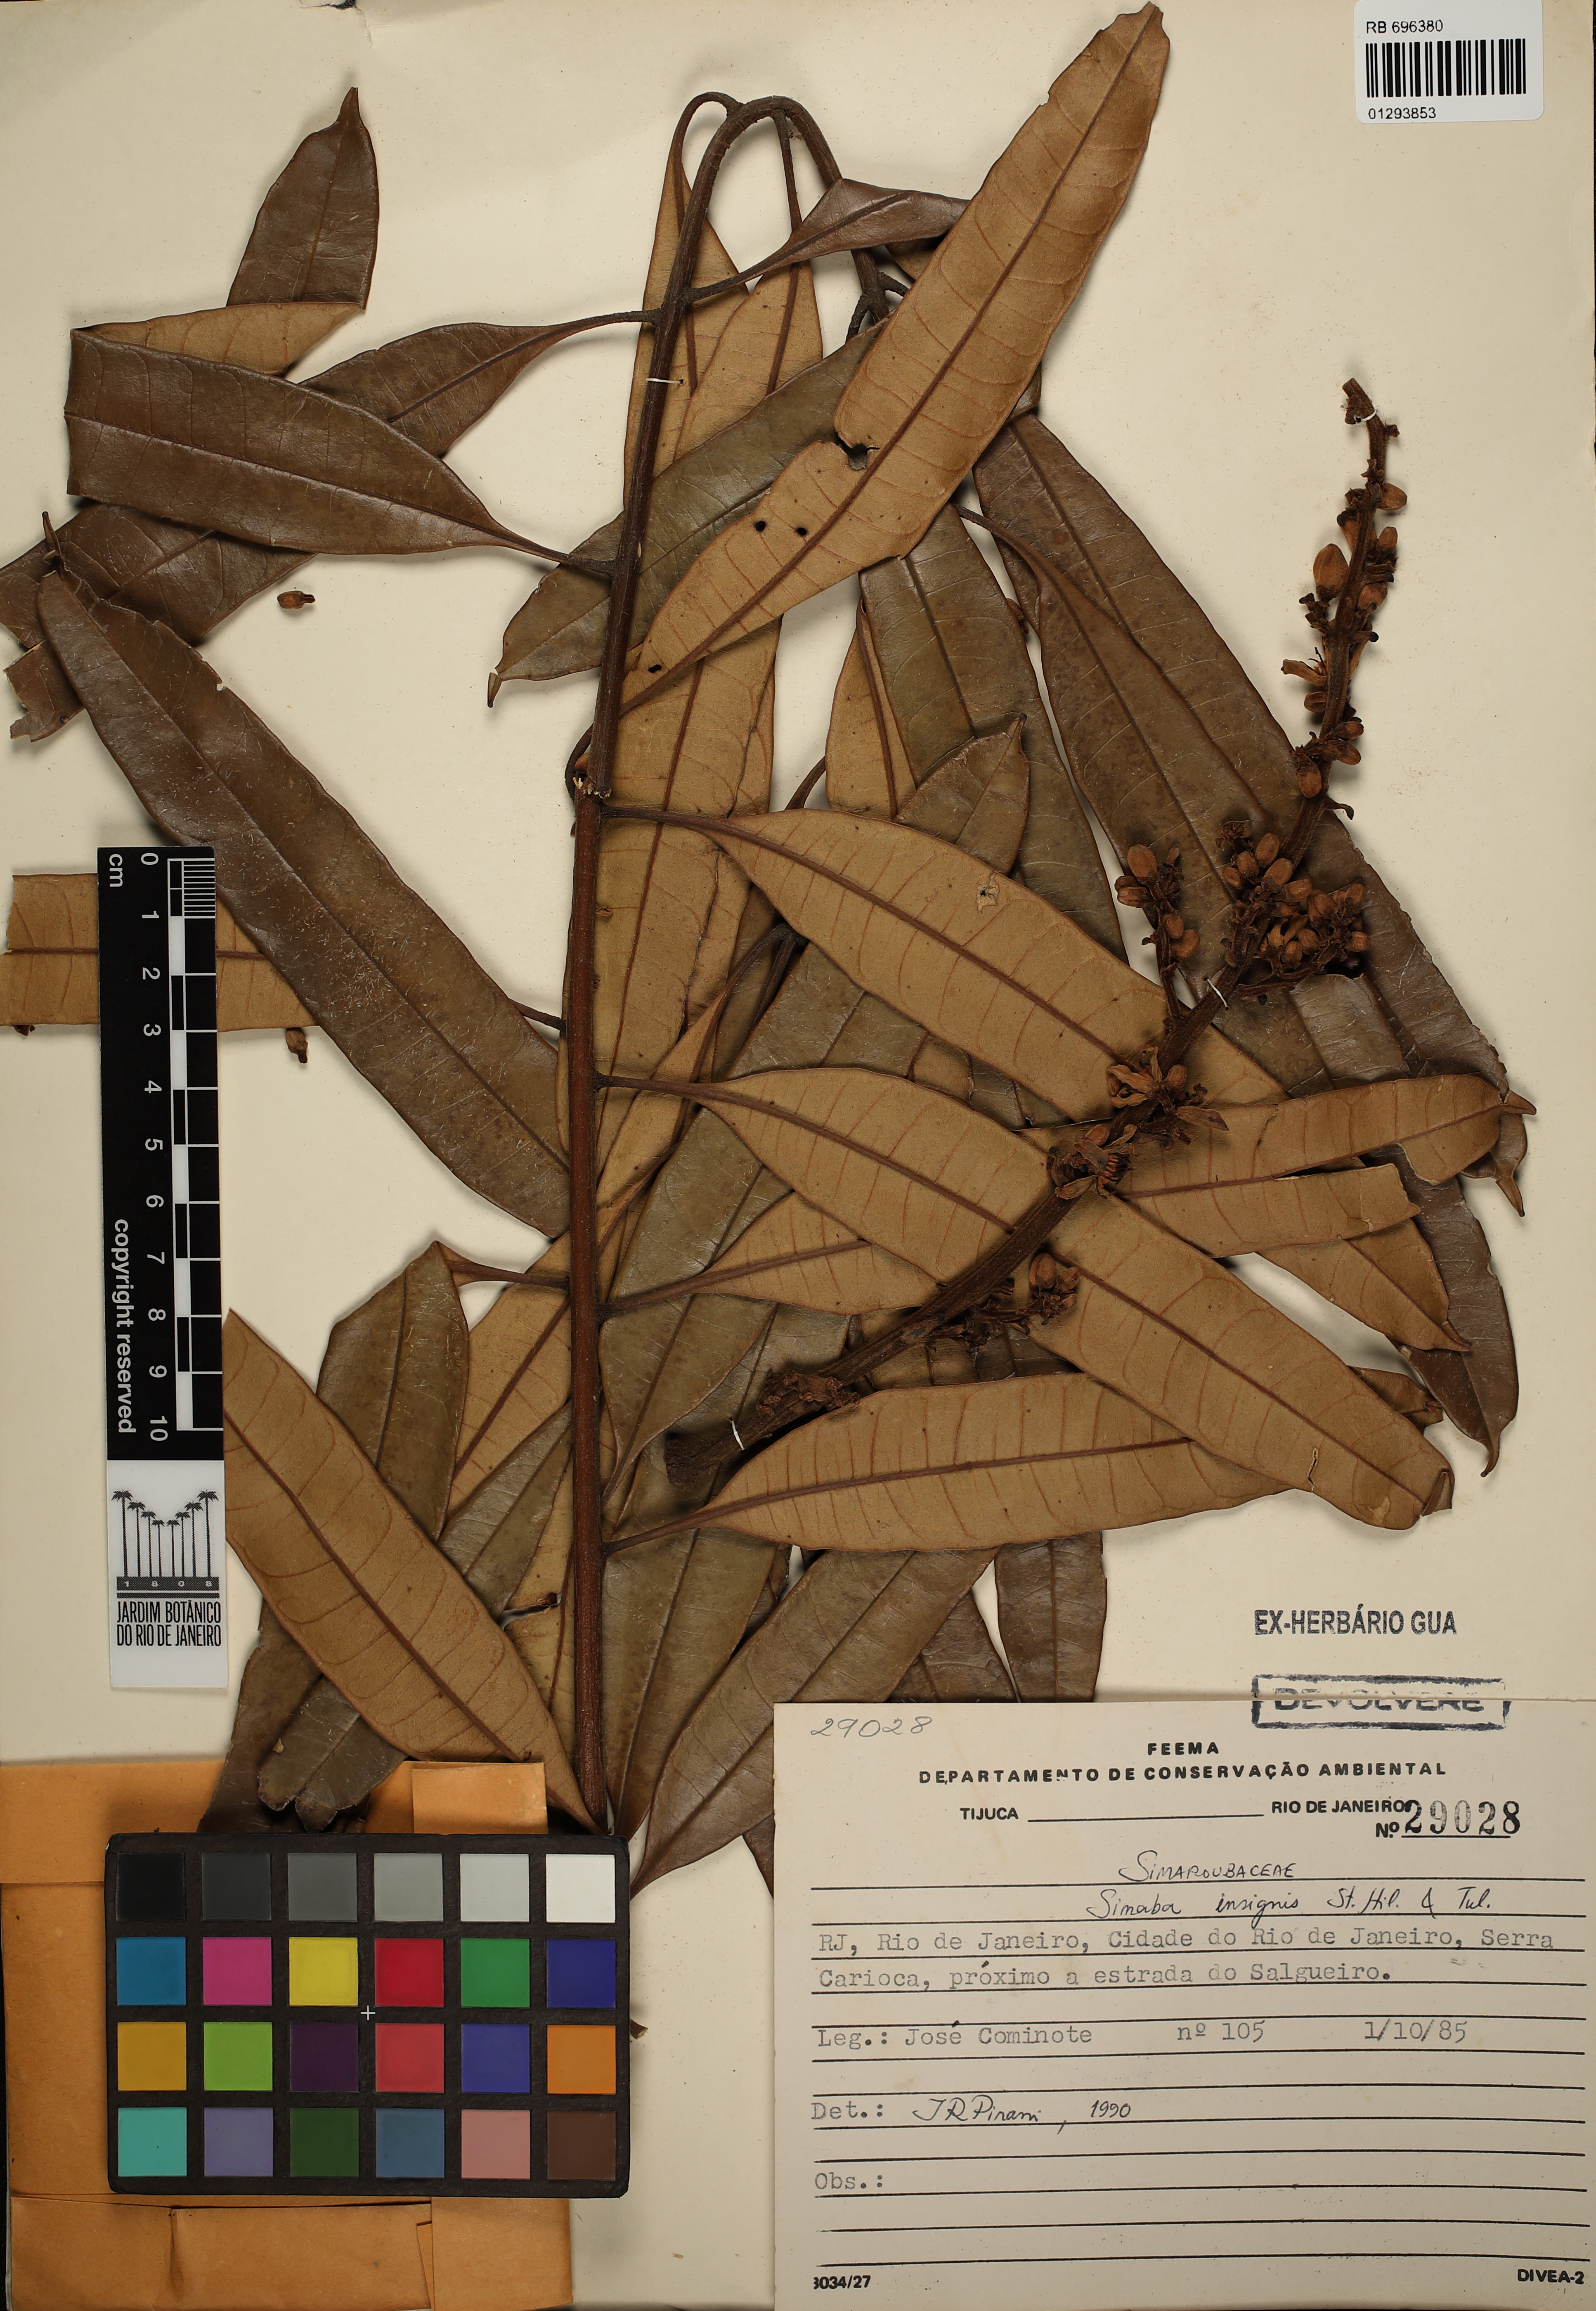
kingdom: Plantae
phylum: Tracheophyta
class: Magnoliopsida
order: Sapindales
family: Simaroubaceae
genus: Homalolepis
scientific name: Homalolepis insignis
